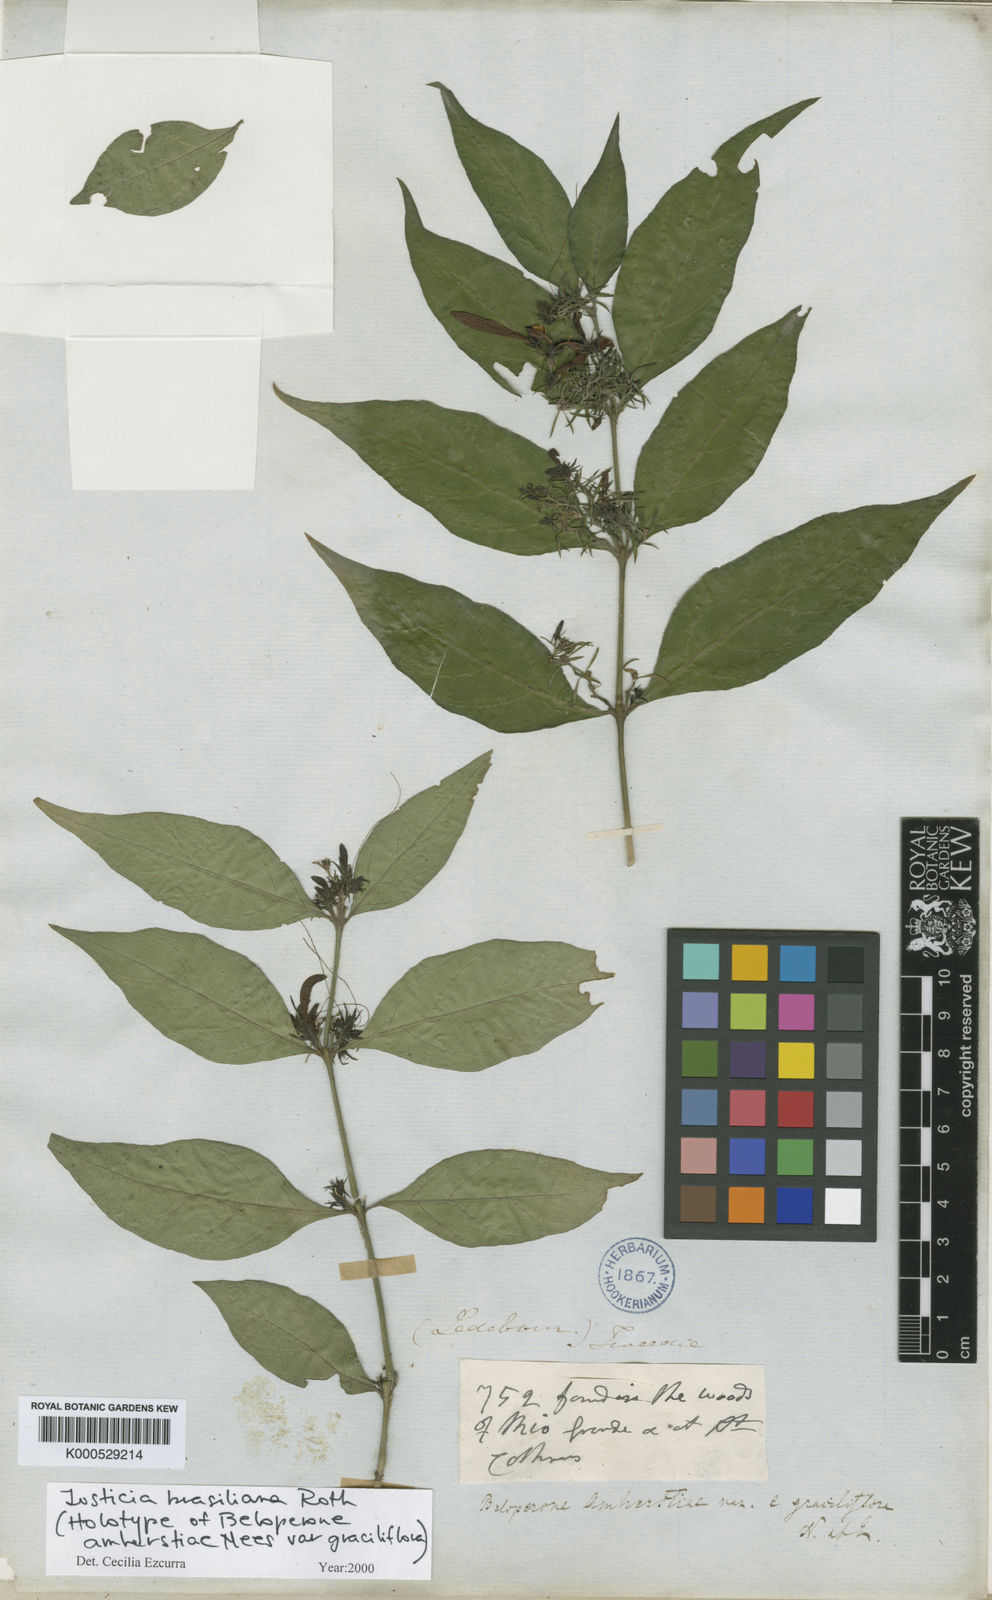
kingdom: Plantae
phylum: Tracheophyta
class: Magnoliopsida
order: Lamiales
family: Acanthaceae
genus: Justicia
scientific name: Justicia brasiliana
